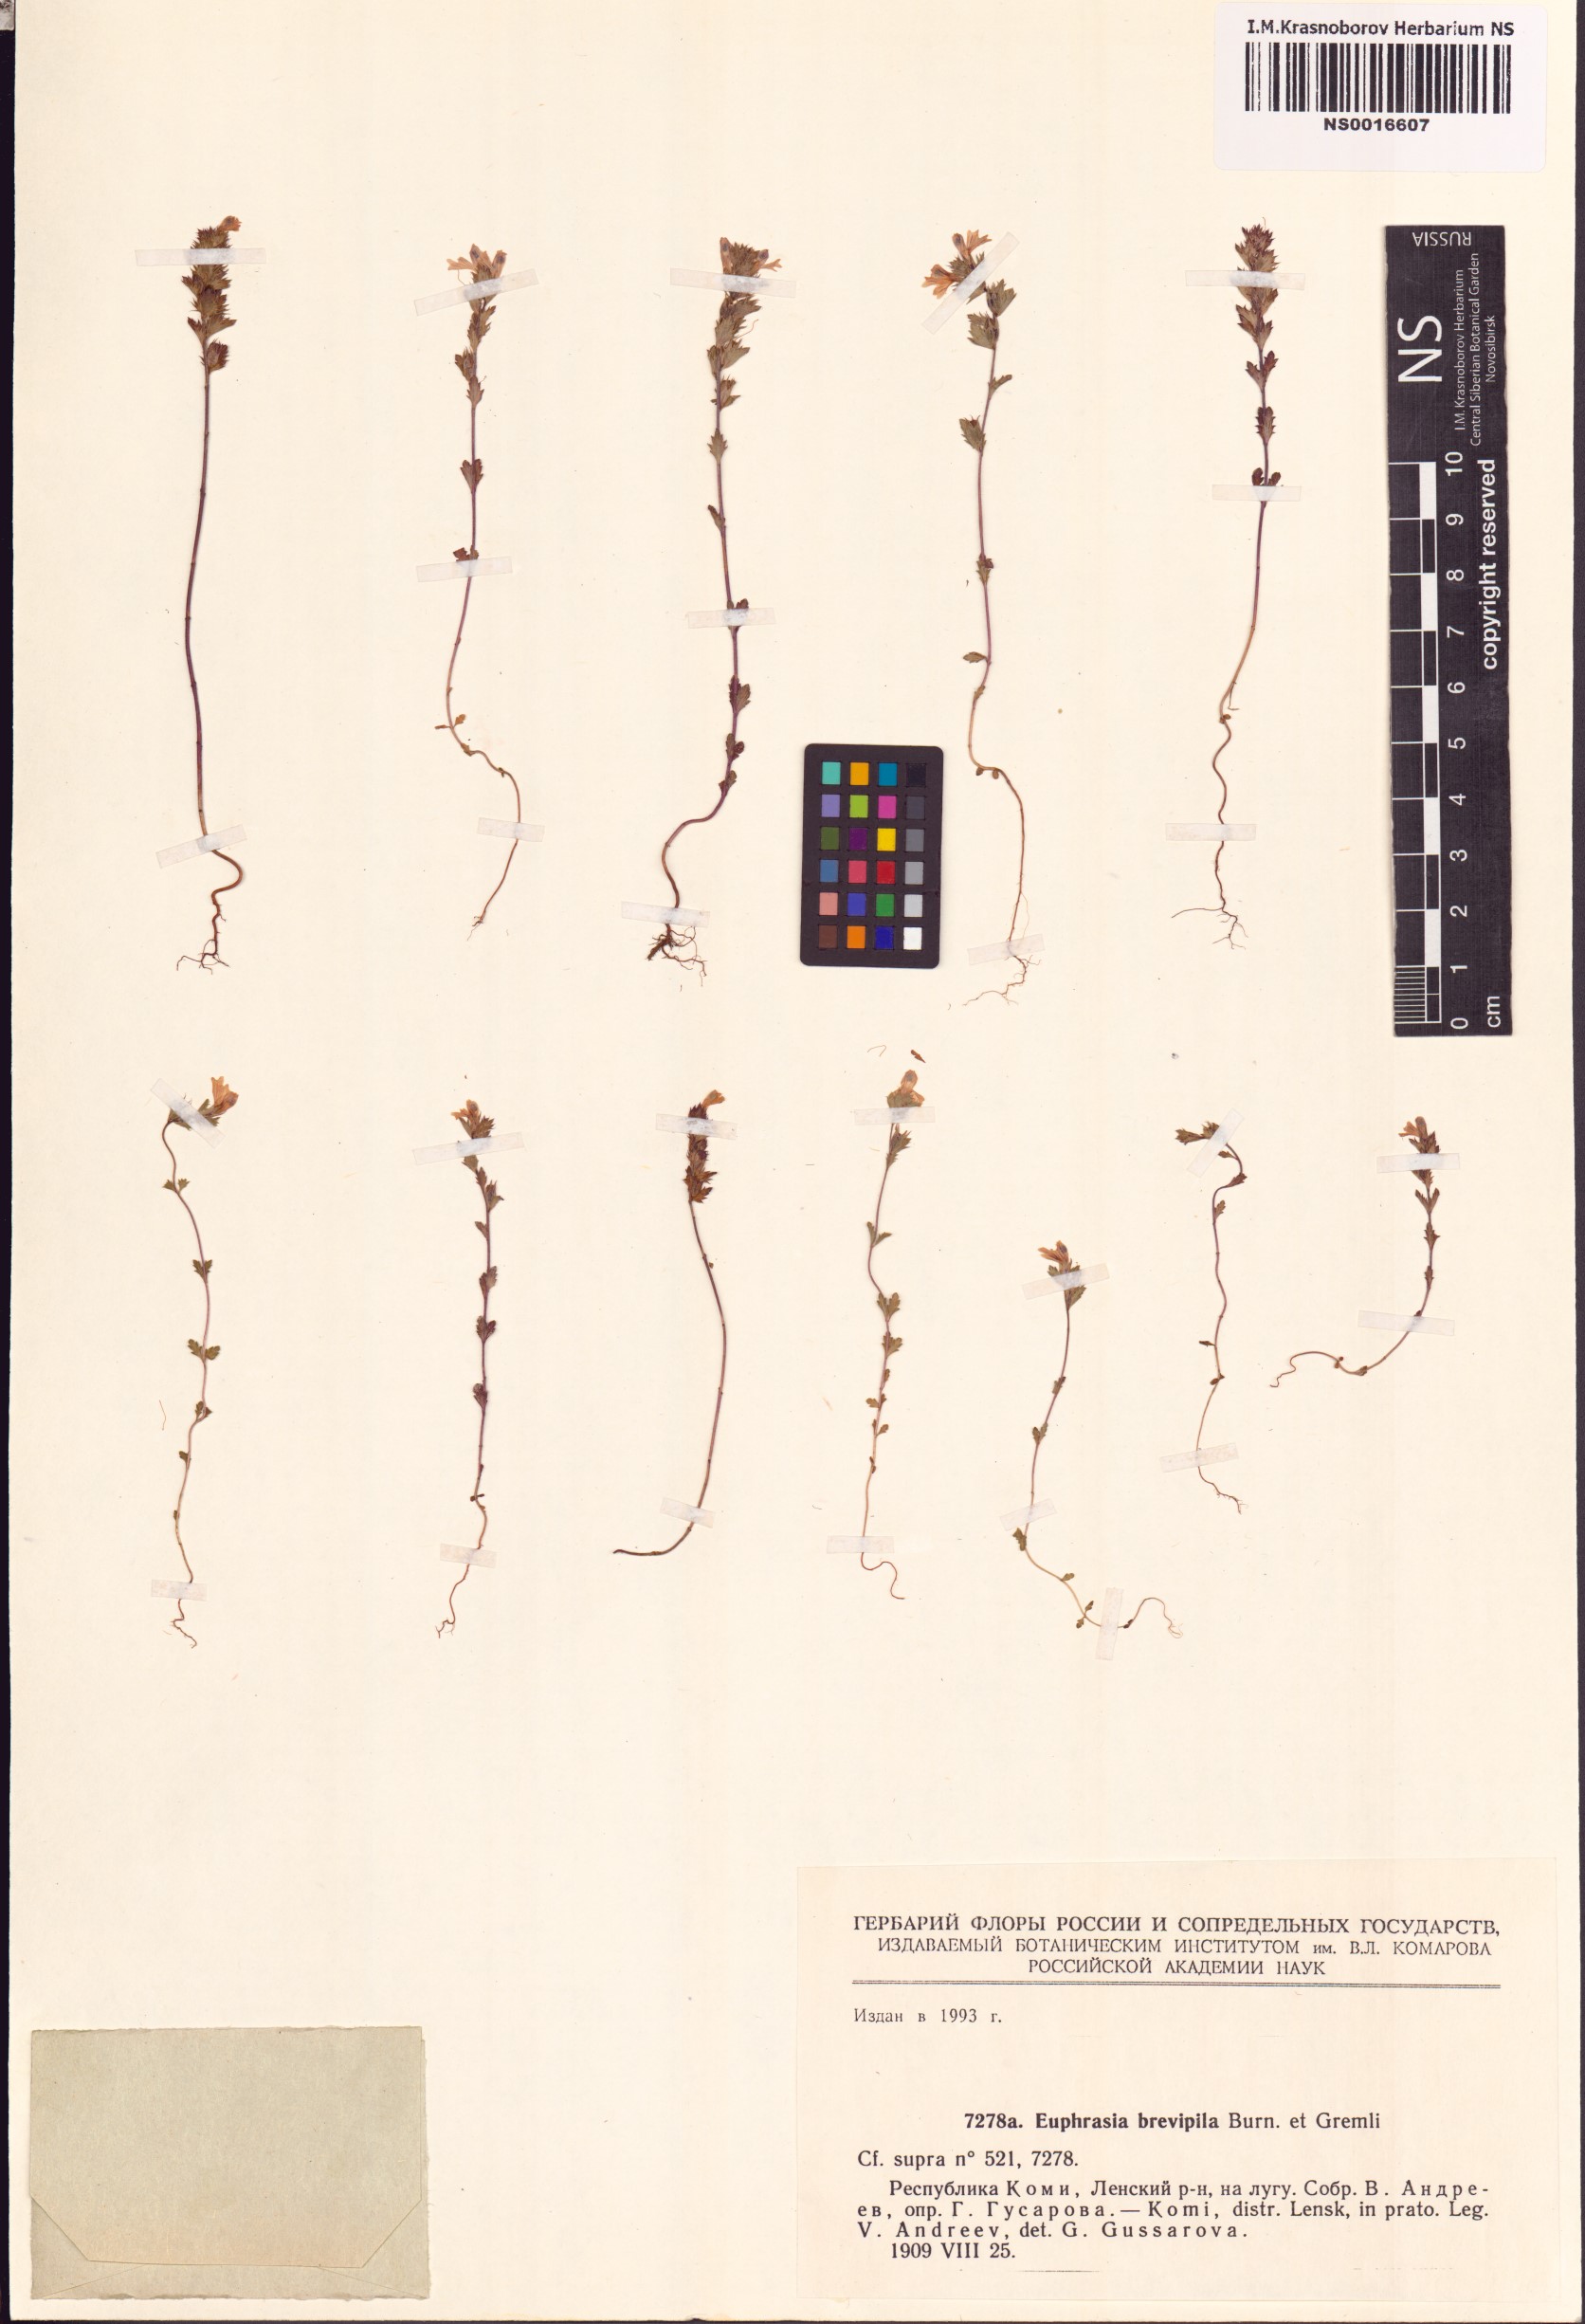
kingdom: Plantae
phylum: Tracheophyta
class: Magnoliopsida
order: Lamiales
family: Orobanchaceae
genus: Euphrasia
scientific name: Euphrasia vernalis
